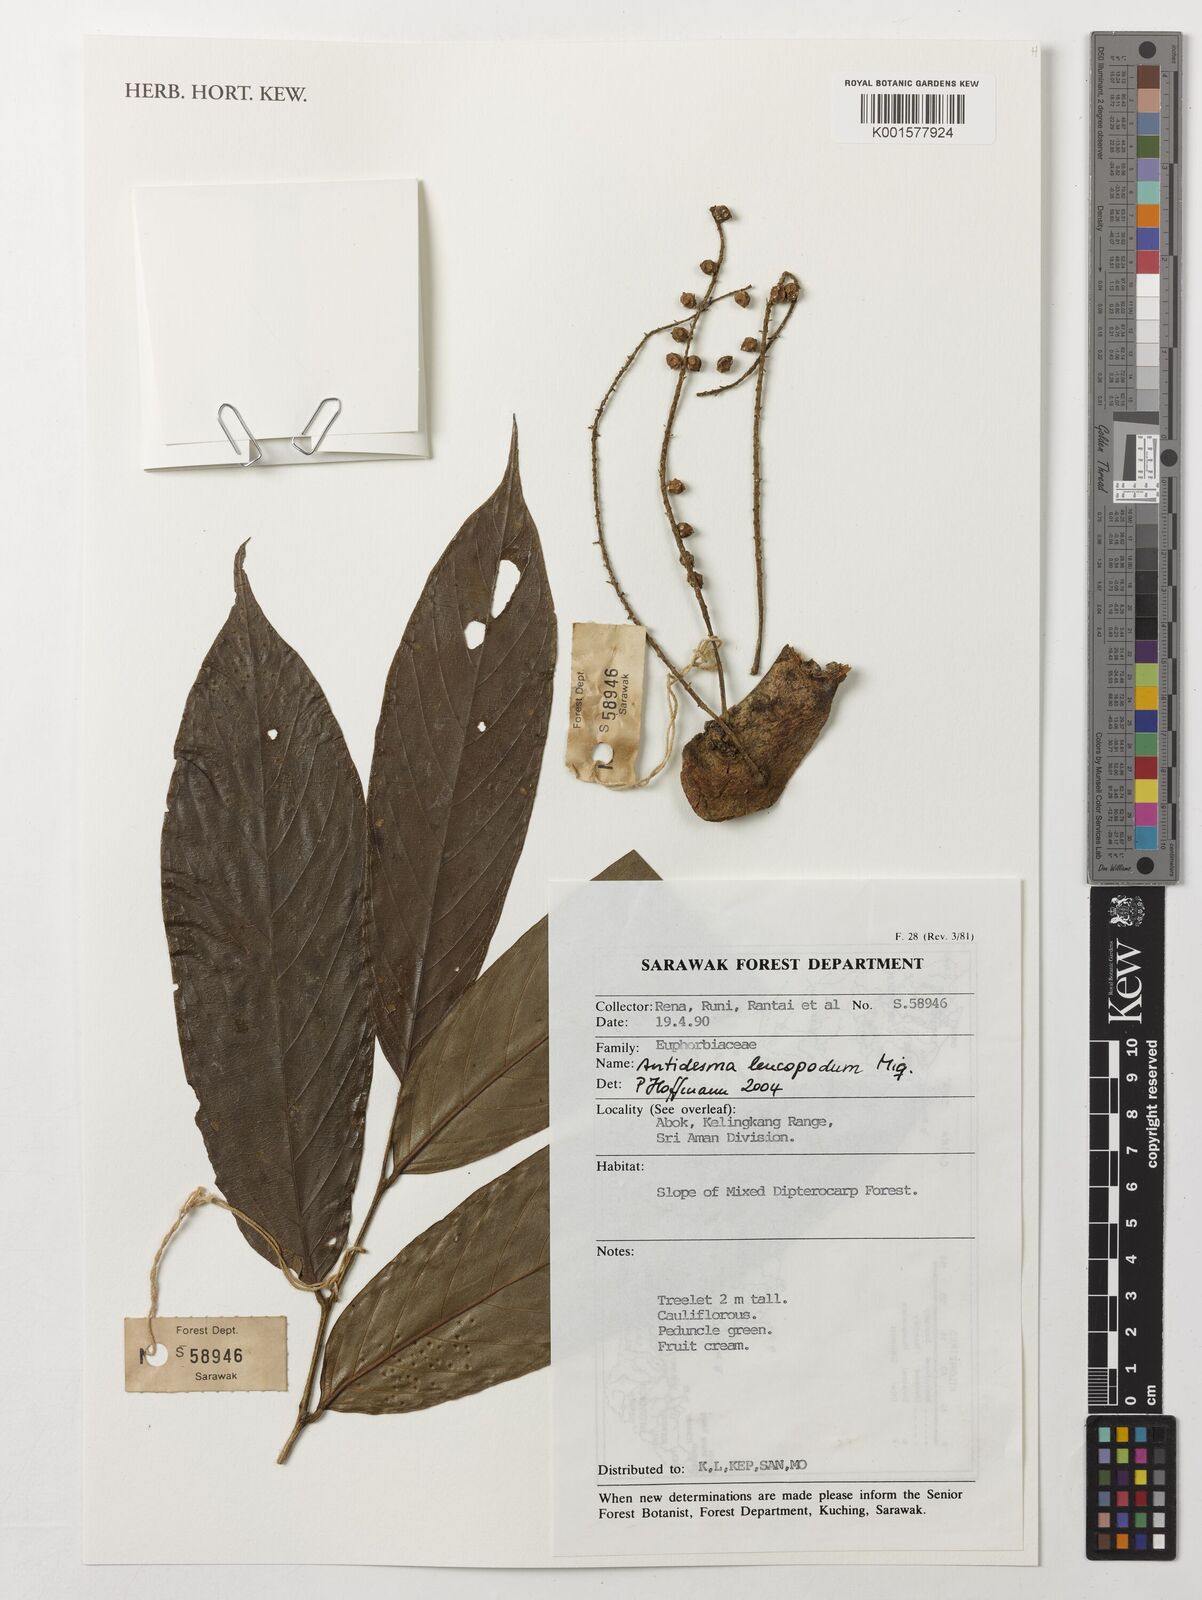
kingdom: Plantae
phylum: Tracheophyta
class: Magnoliopsida
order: Malpighiales
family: Phyllanthaceae
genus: Antidesma
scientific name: Antidesma leucopodum
